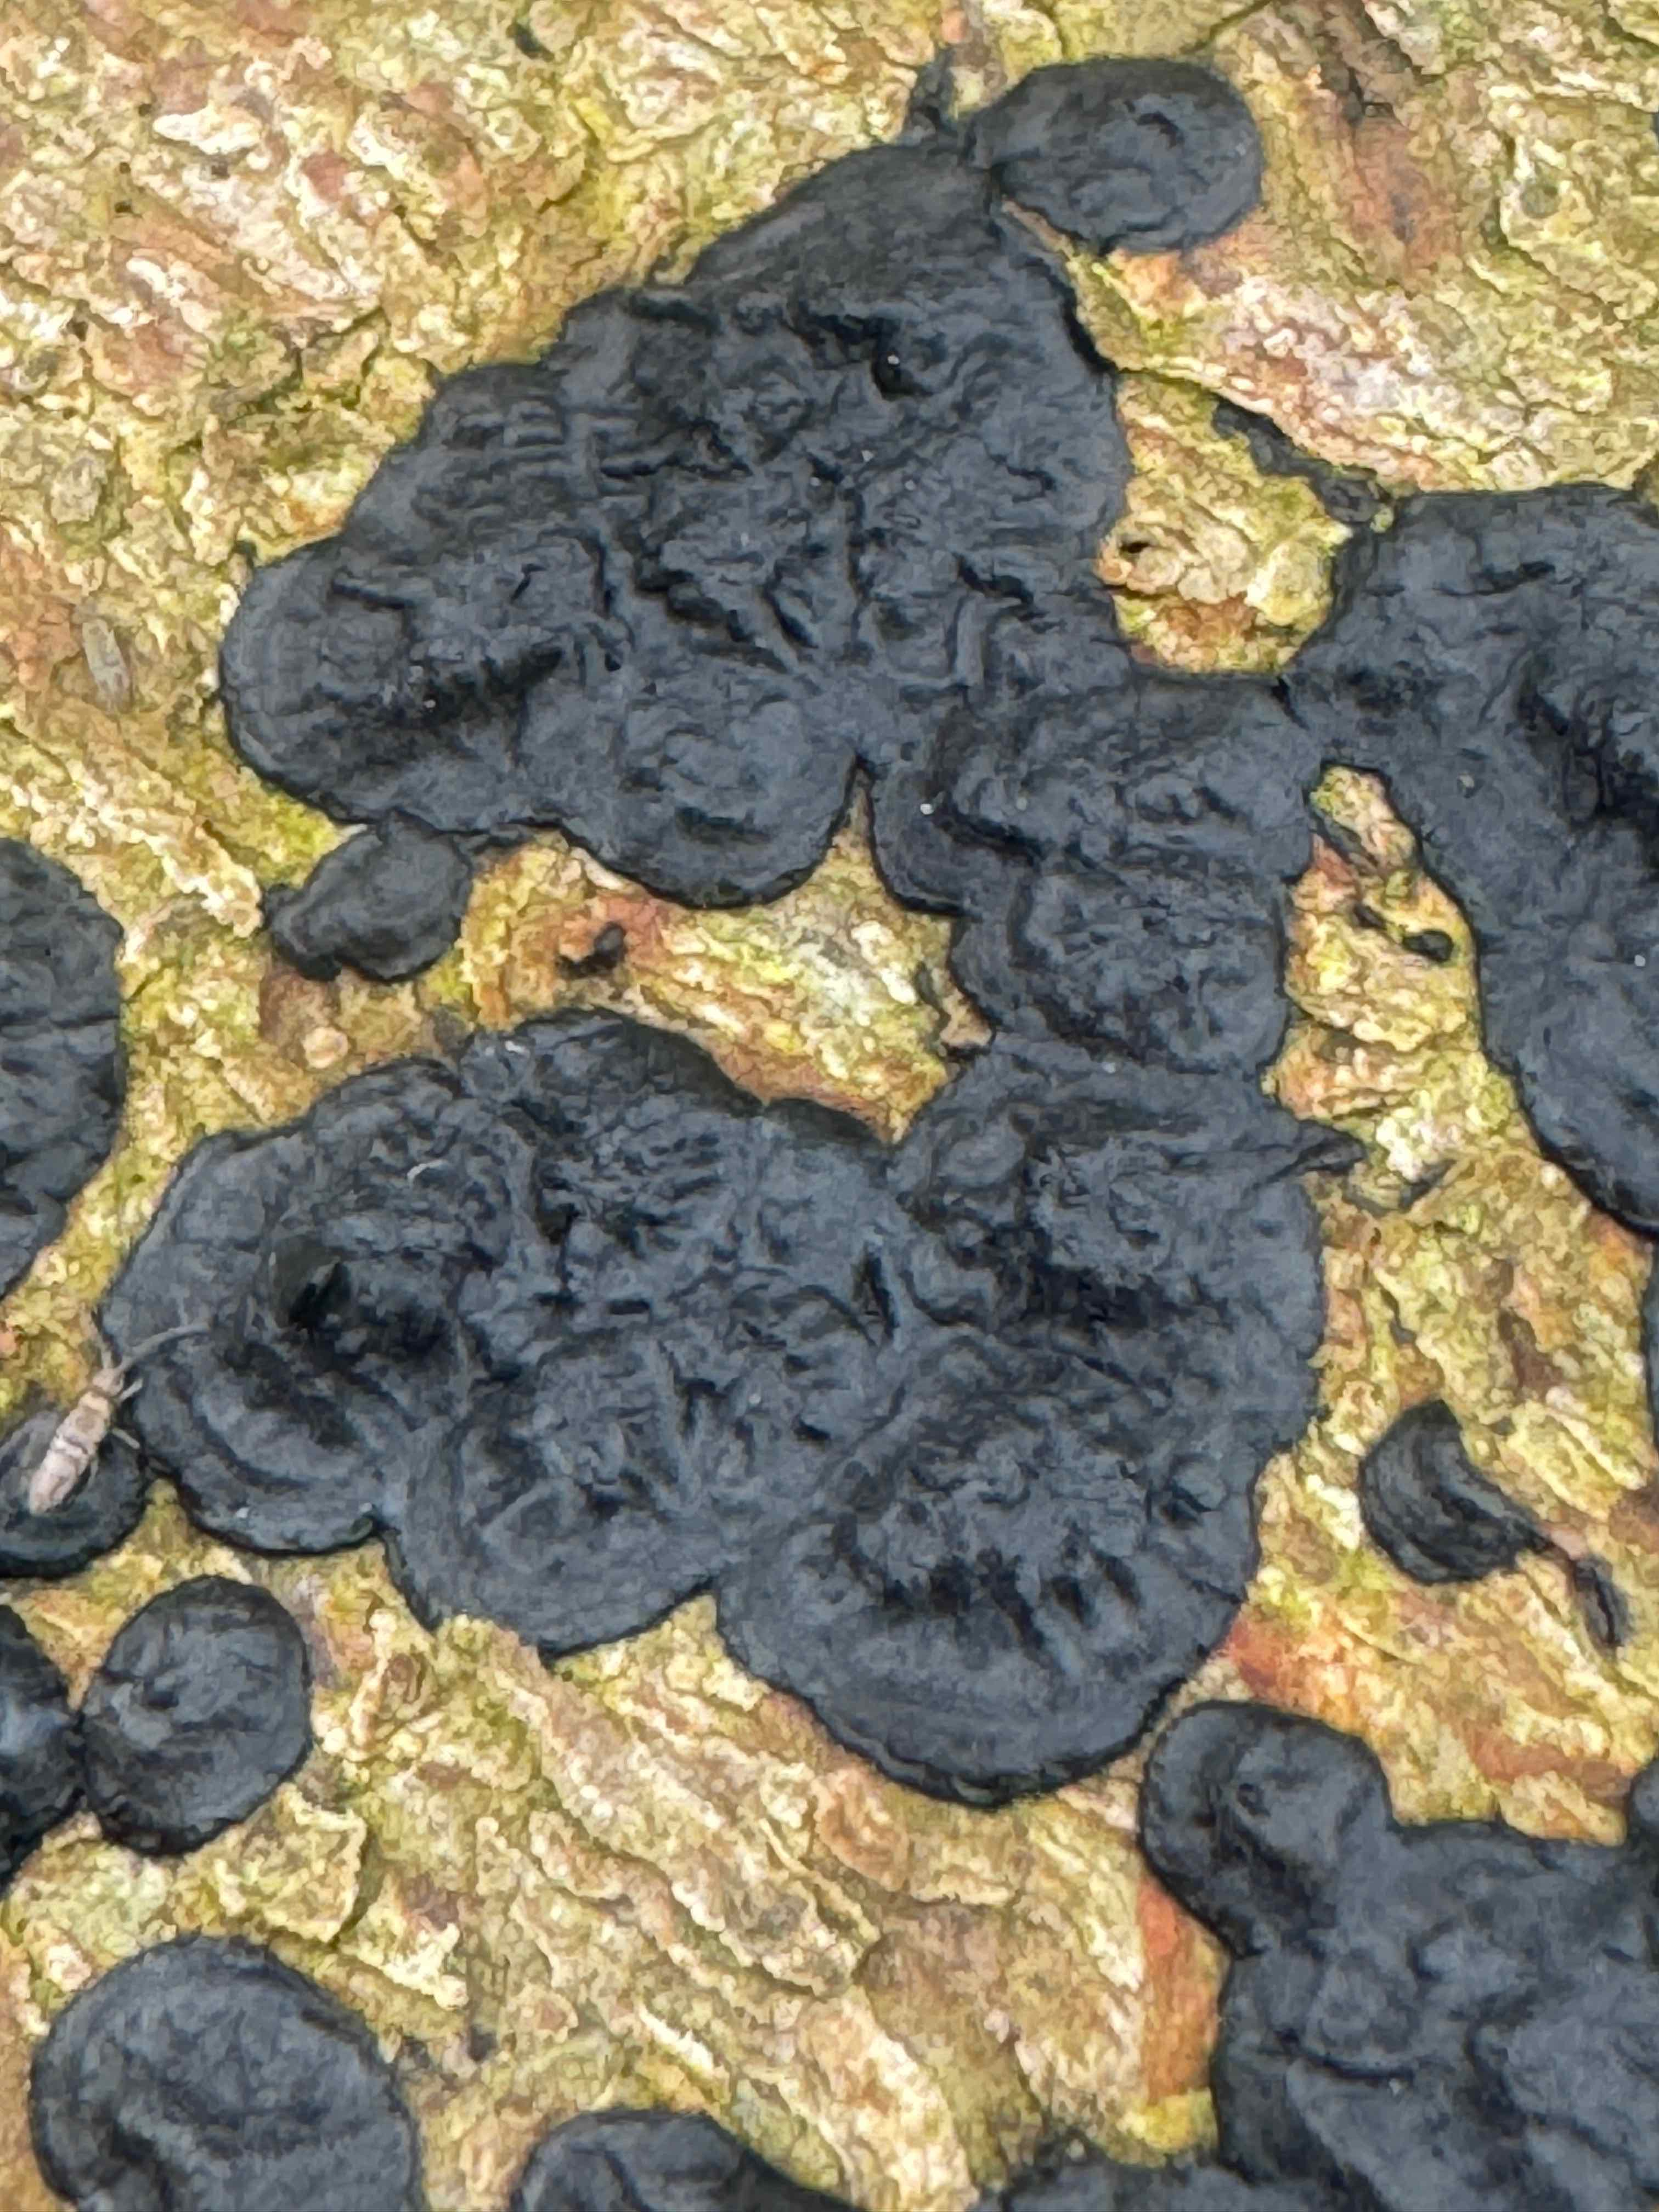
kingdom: Fungi
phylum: Basidiomycota
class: Agaricomycetes
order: Auriculariales
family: Auriculariaceae
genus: Exidia
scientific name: Exidia pithya
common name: gran-bævretop
